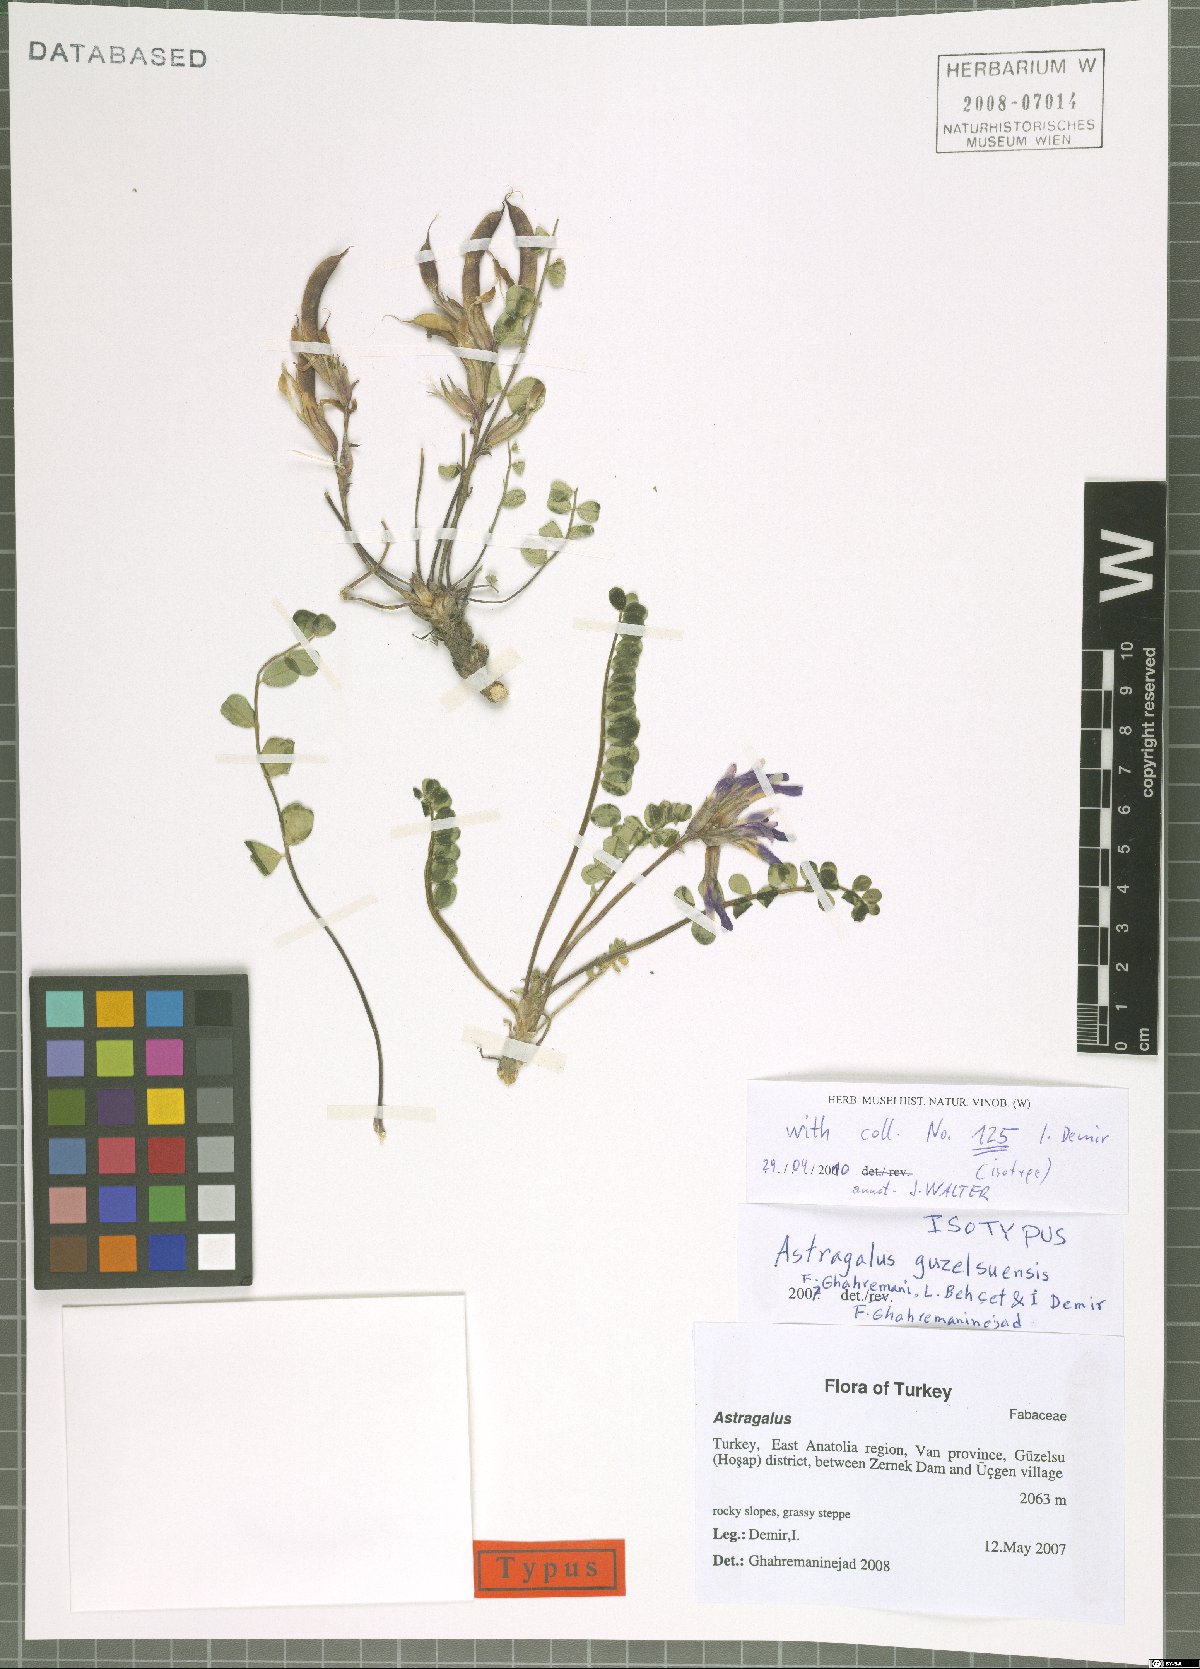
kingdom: Plantae
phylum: Tracheophyta
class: Magnoliopsida
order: Fabales
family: Fabaceae
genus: Astragalus
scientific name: Astragalus guzelsuensis
